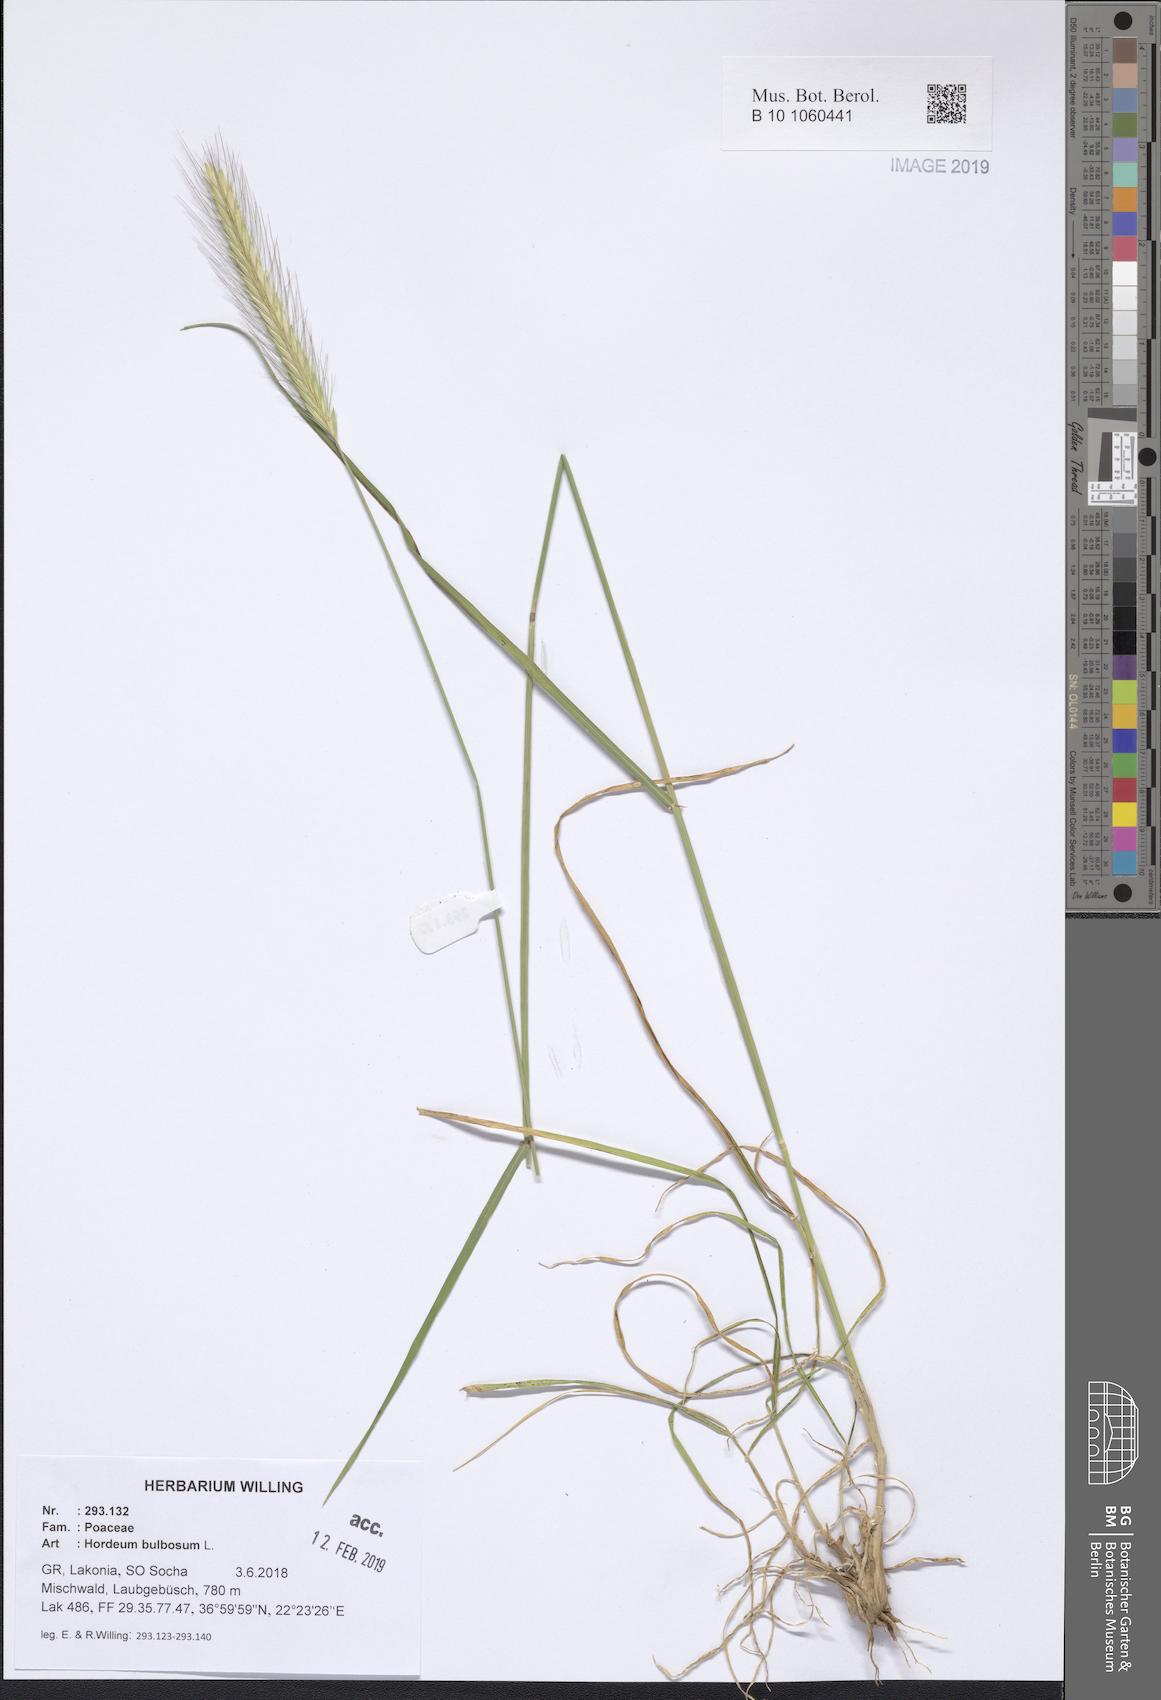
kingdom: Plantae
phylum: Tracheophyta
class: Liliopsida
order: Poales
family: Poaceae
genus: Hordeum
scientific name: Hordeum bulbosum
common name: Bulbous barley
